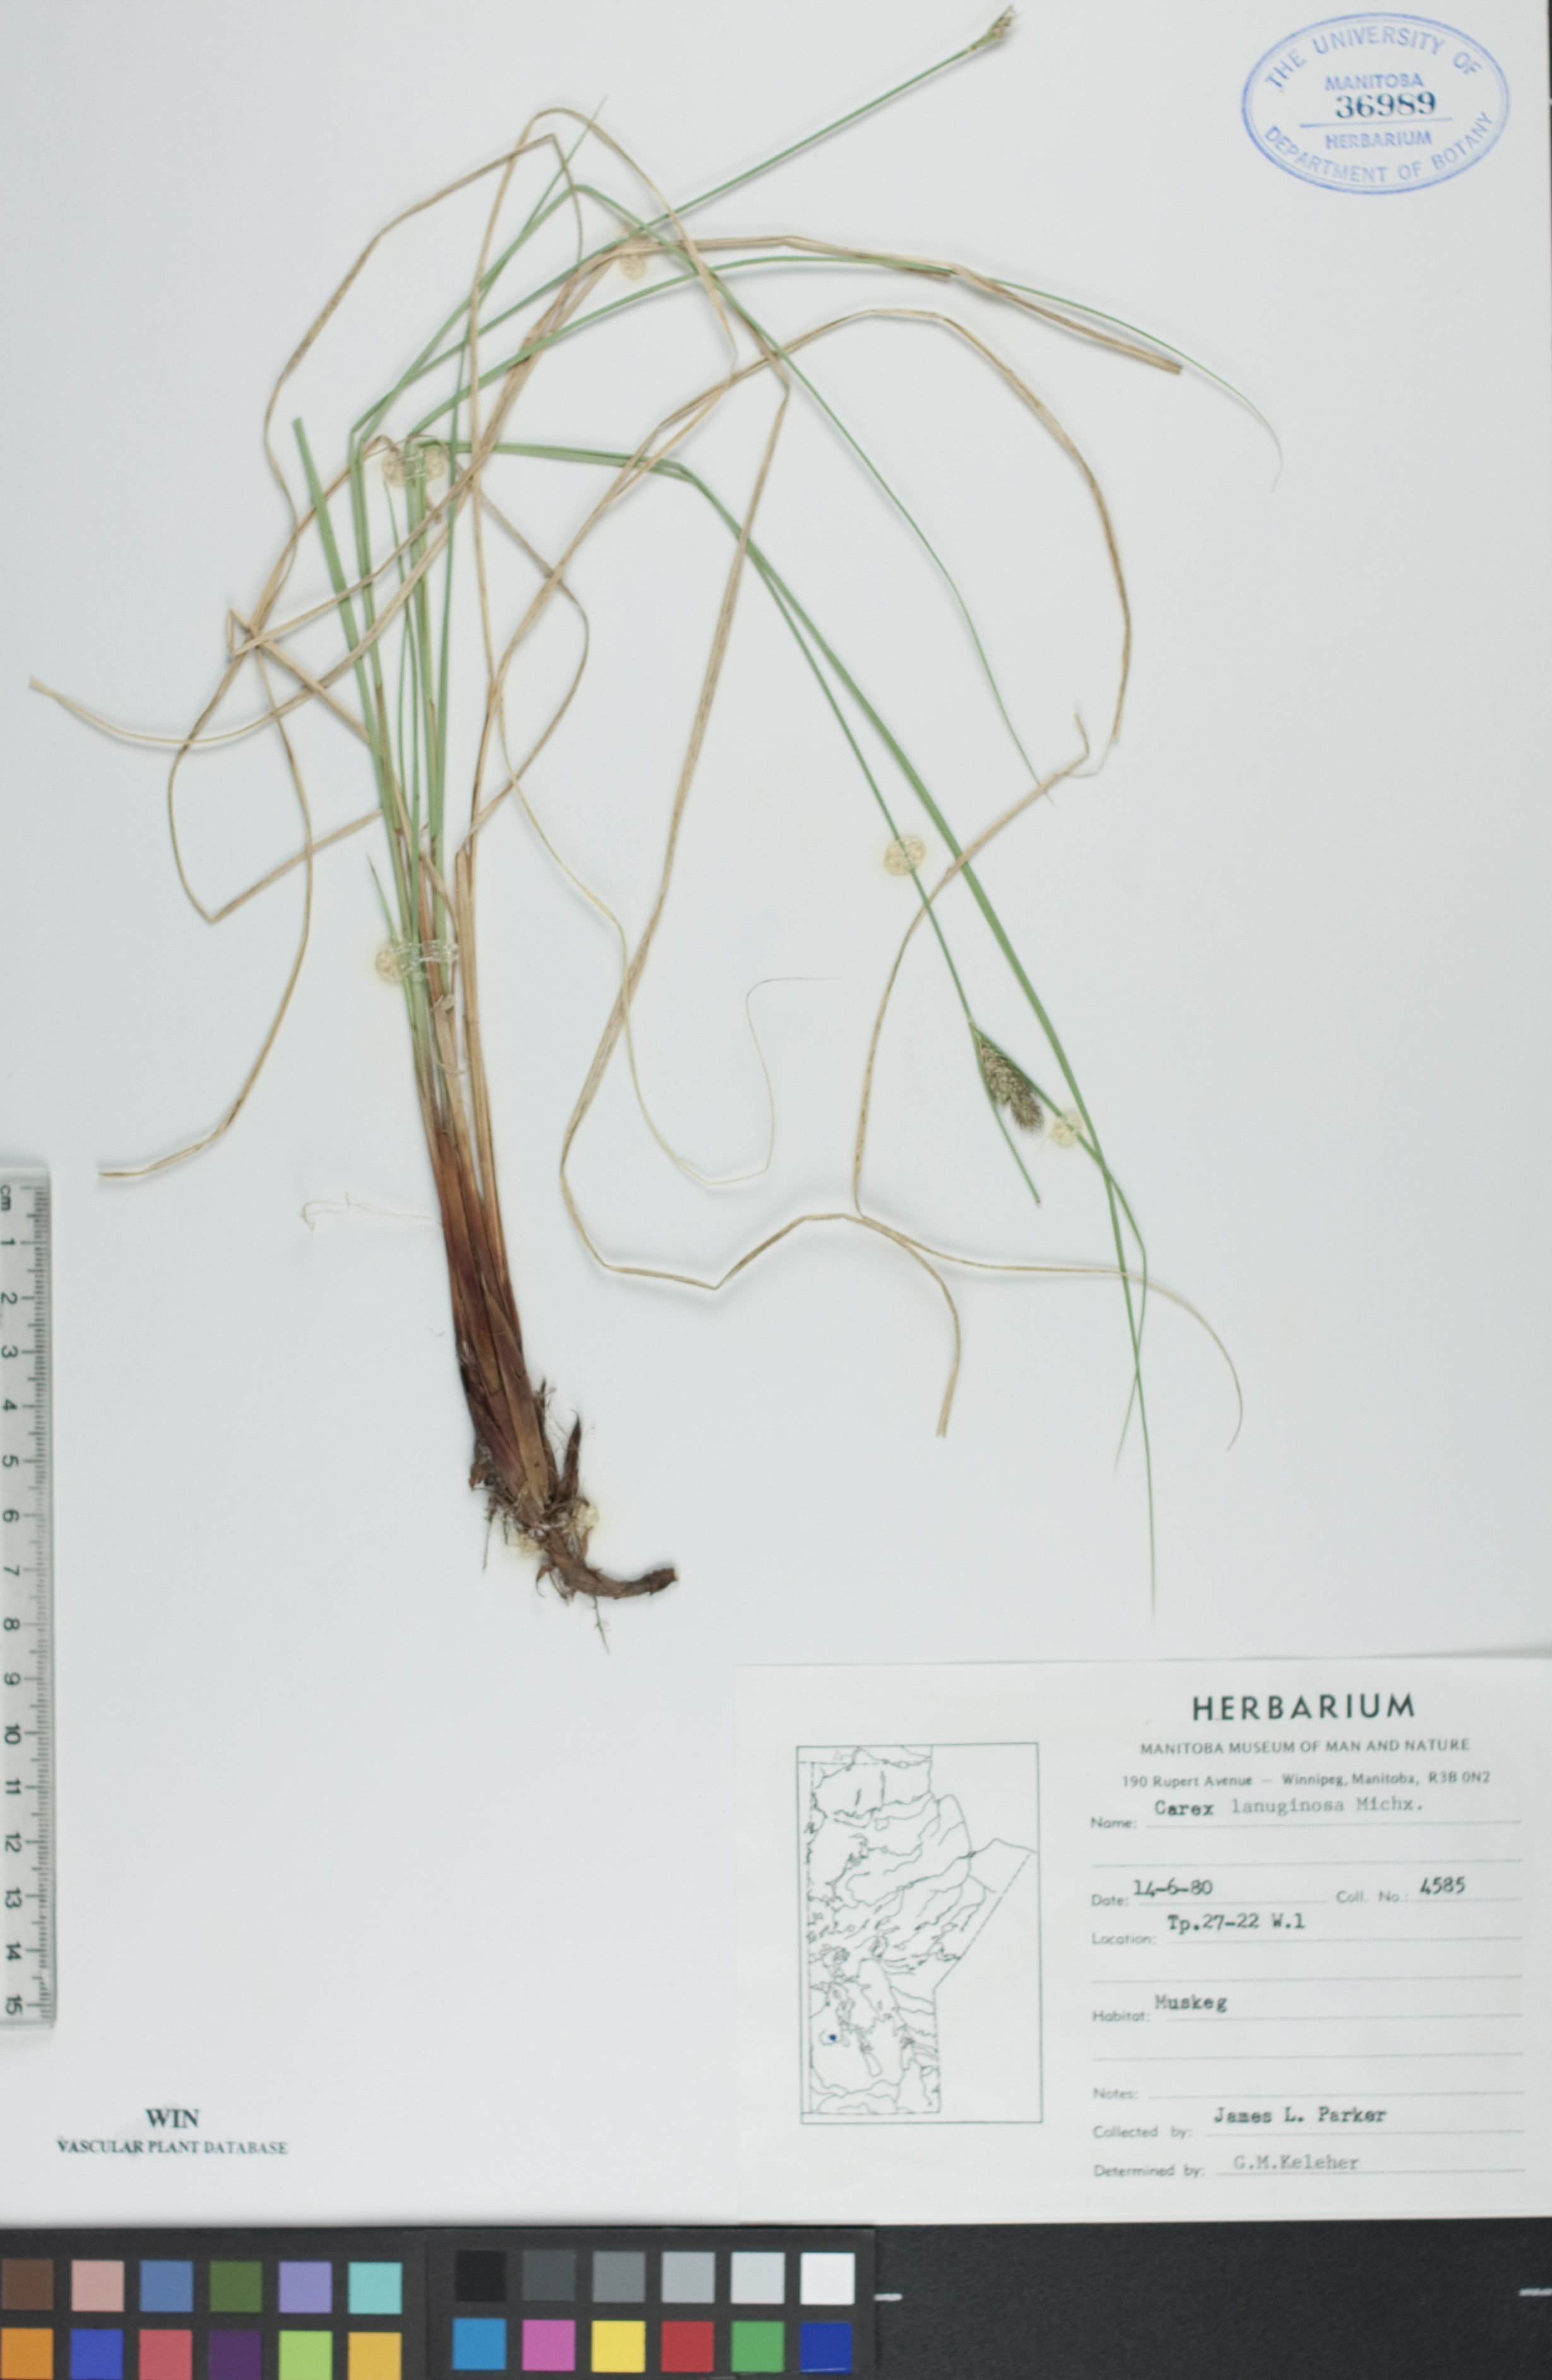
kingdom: Plantae
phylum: Tracheophyta
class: Liliopsida
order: Poales
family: Cyperaceae
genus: Carex
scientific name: Carex lasiocarpa
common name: Slender sedge
